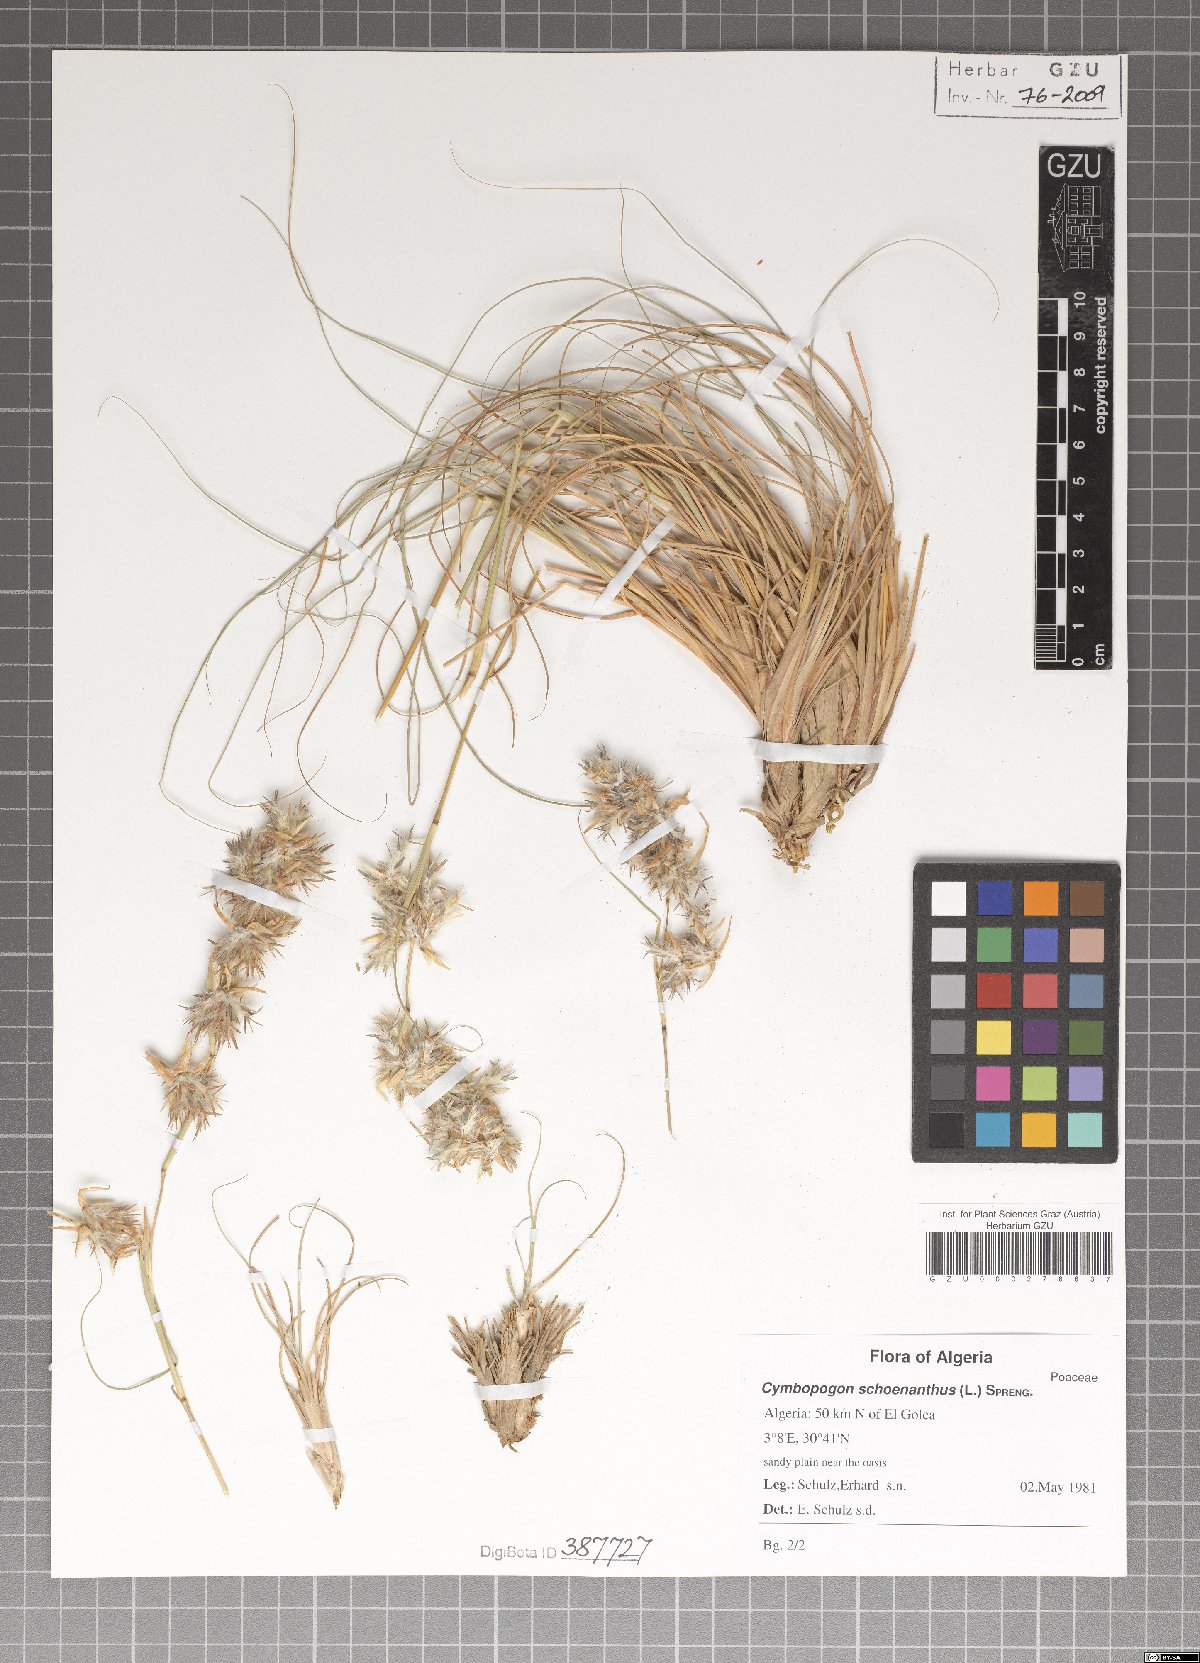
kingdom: Plantae
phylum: Tracheophyta
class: Liliopsida
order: Poales
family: Poaceae
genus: Cymbopogon
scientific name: Cymbopogon schoenanthus
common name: Geranium grass
